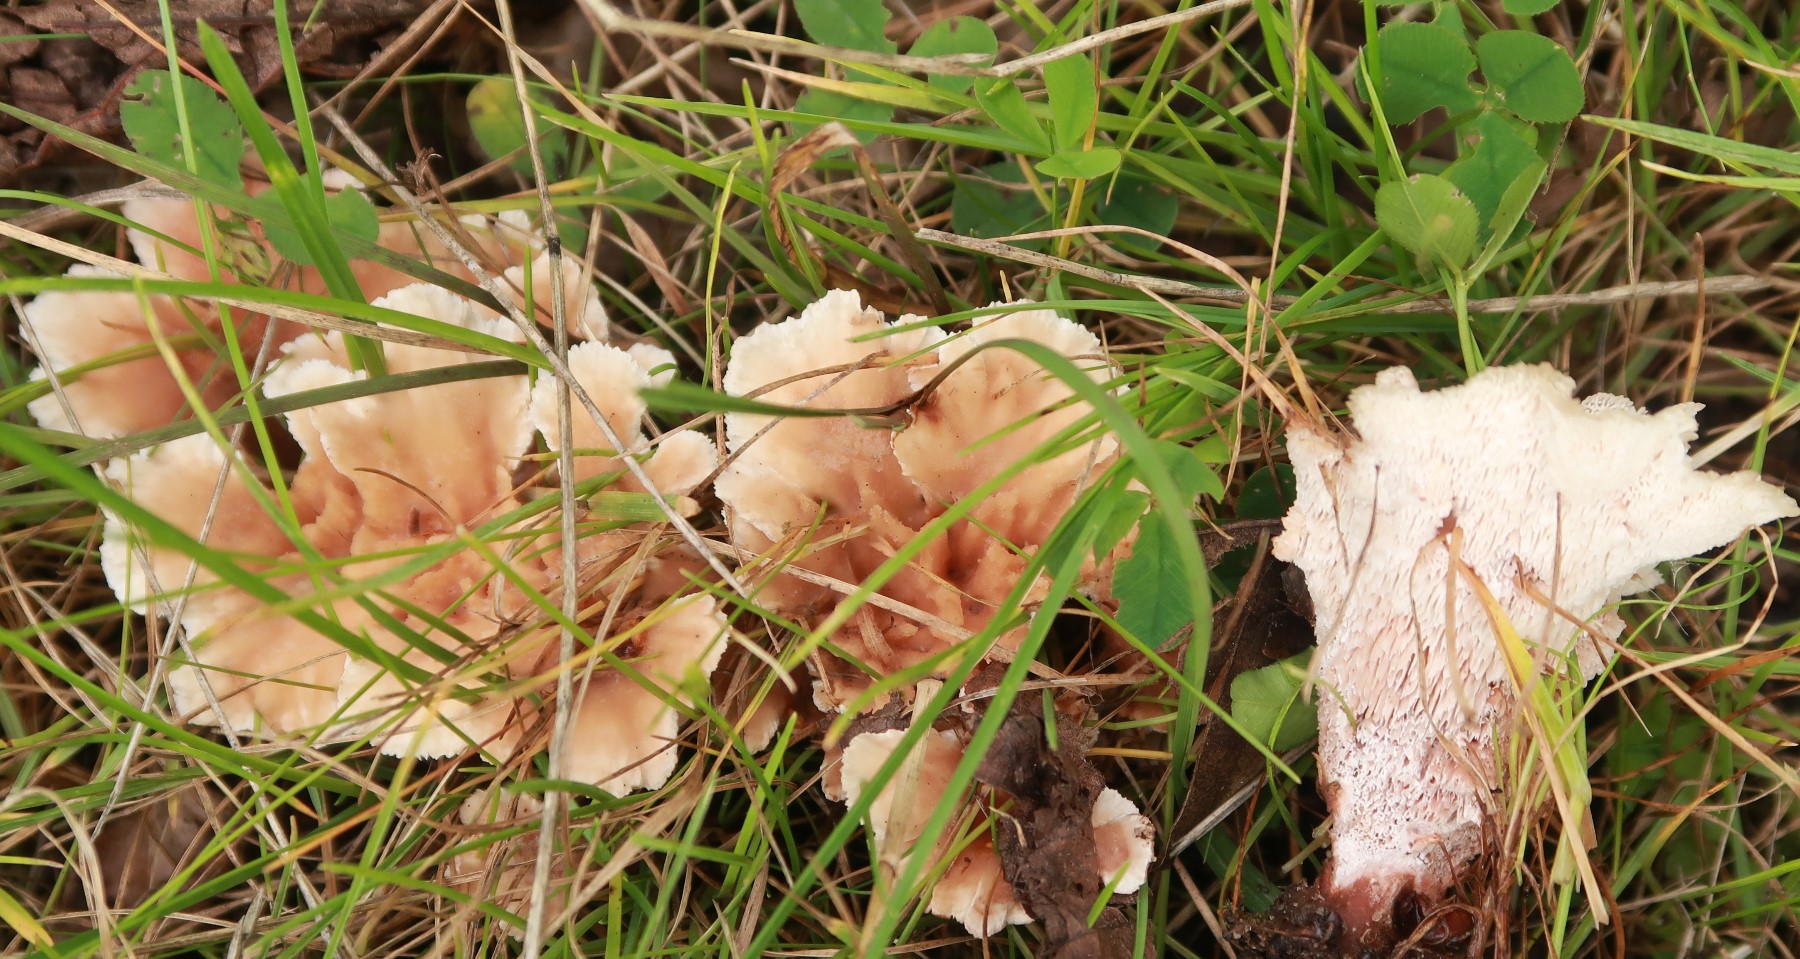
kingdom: Fungi
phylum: Basidiomycota
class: Agaricomycetes
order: Polyporales
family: Podoscyphaceae
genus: Abortiporus
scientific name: Abortiporus biennis
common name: rødmende pjalteporesvamp
